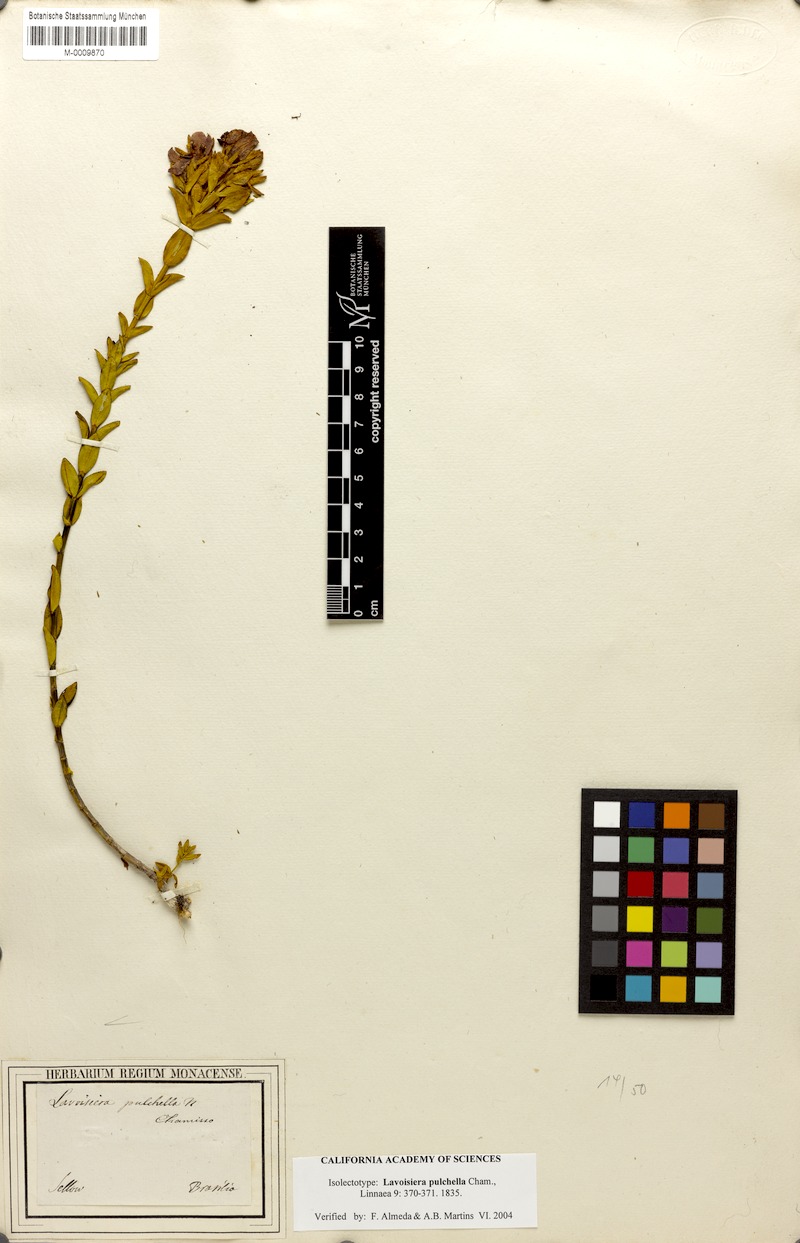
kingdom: Plantae
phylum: Tracheophyta
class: Magnoliopsida
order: Myrtales
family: Melastomataceae
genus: Microlicia
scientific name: Microlicia australis
